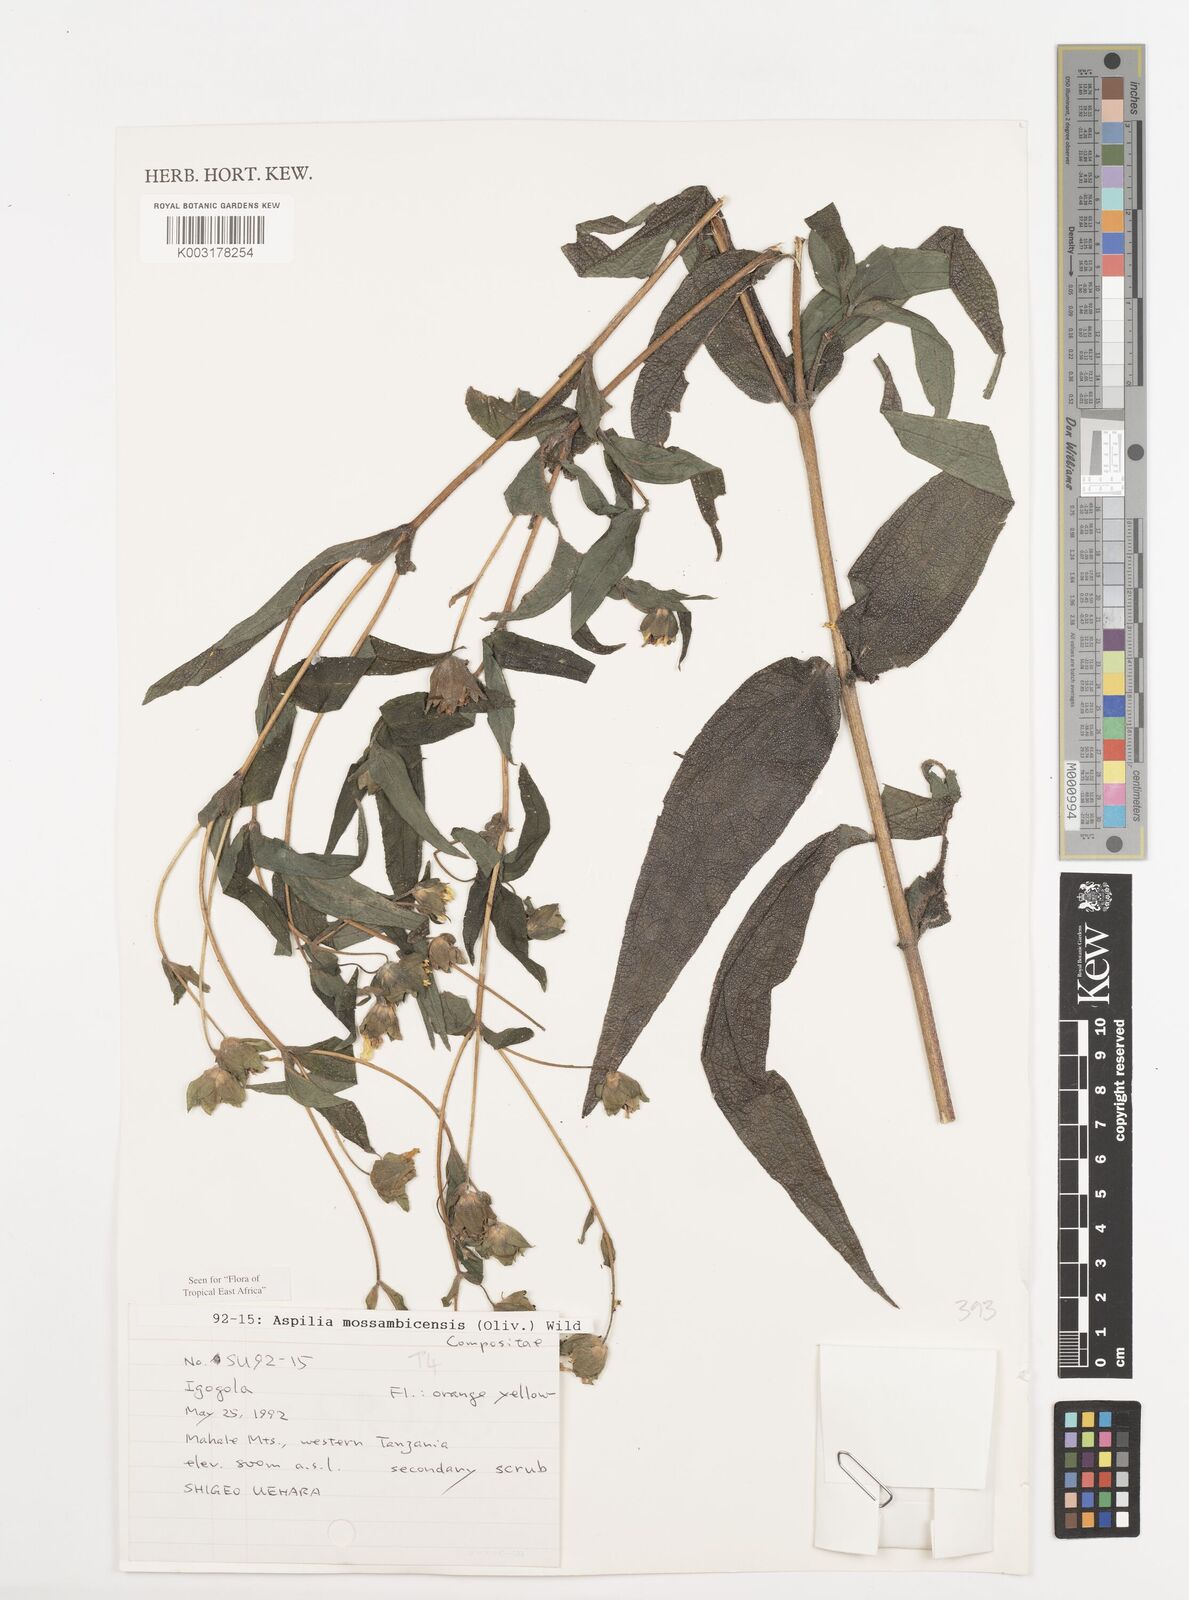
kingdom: Plantae
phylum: Tracheophyta
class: Magnoliopsida
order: Asterales
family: Asteraceae
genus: Aspilia
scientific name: Aspilia mossambicensis
